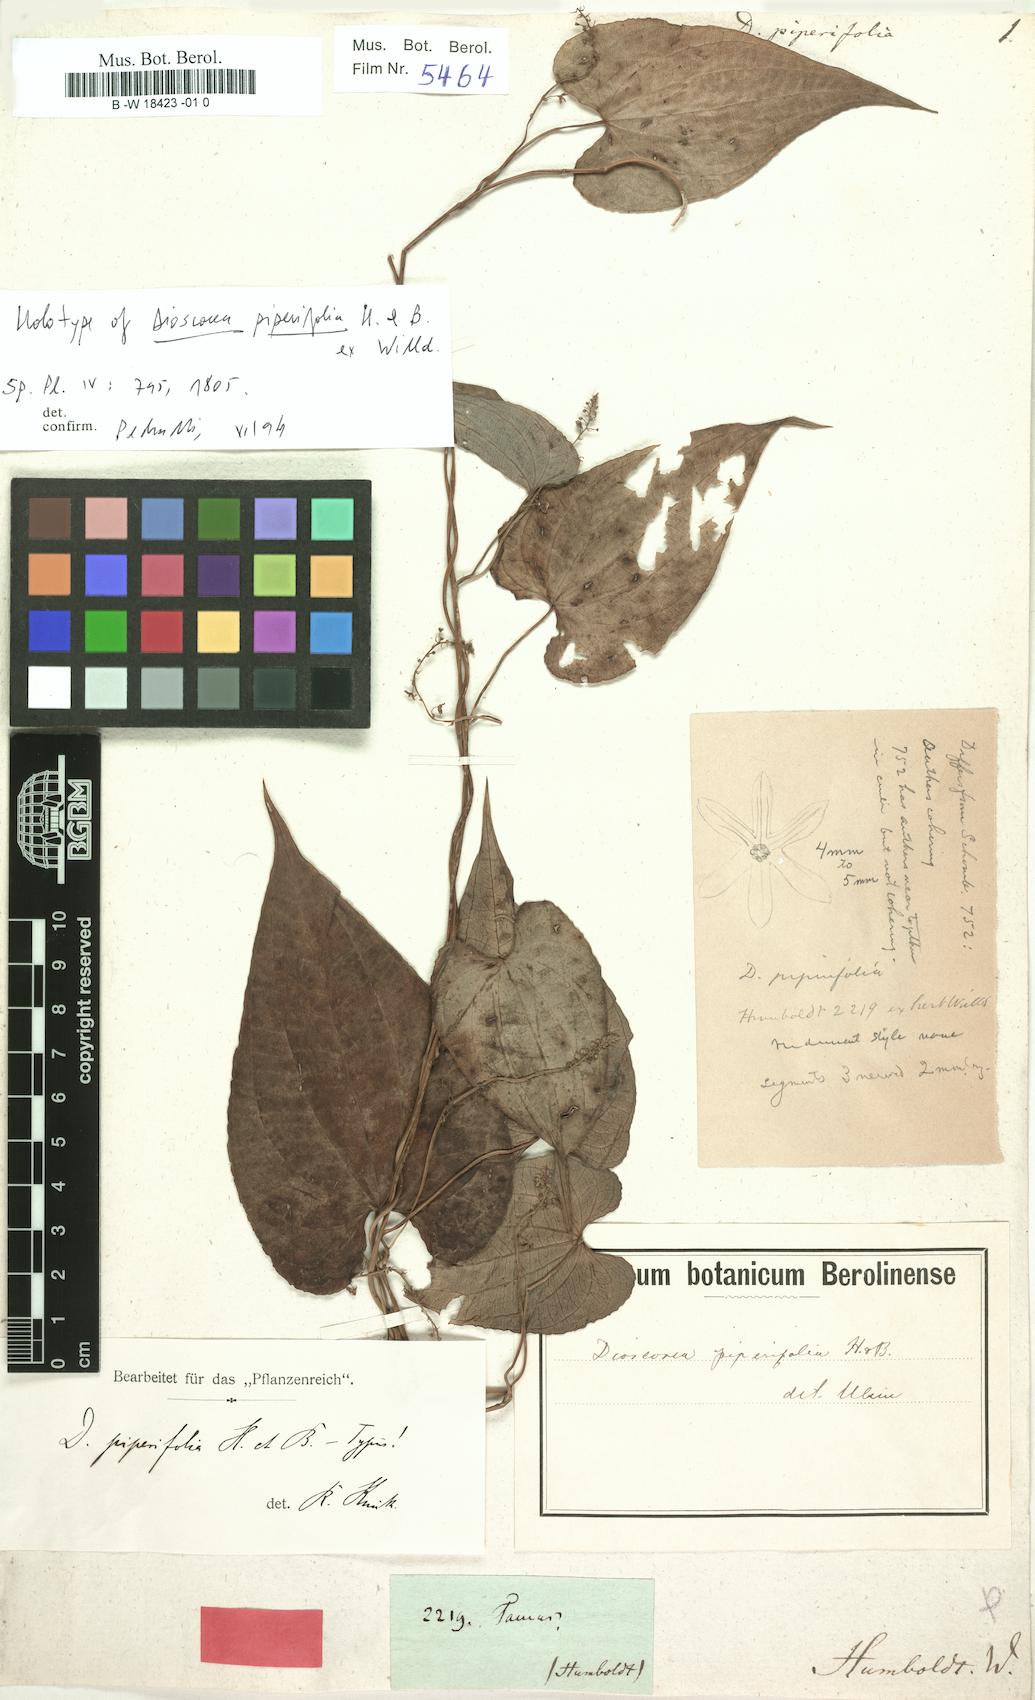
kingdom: Plantae
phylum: Tracheophyta
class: Liliopsida
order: Dioscoreales
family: Dioscoreaceae
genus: Dioscorea
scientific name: Dioscorea piperifolia
